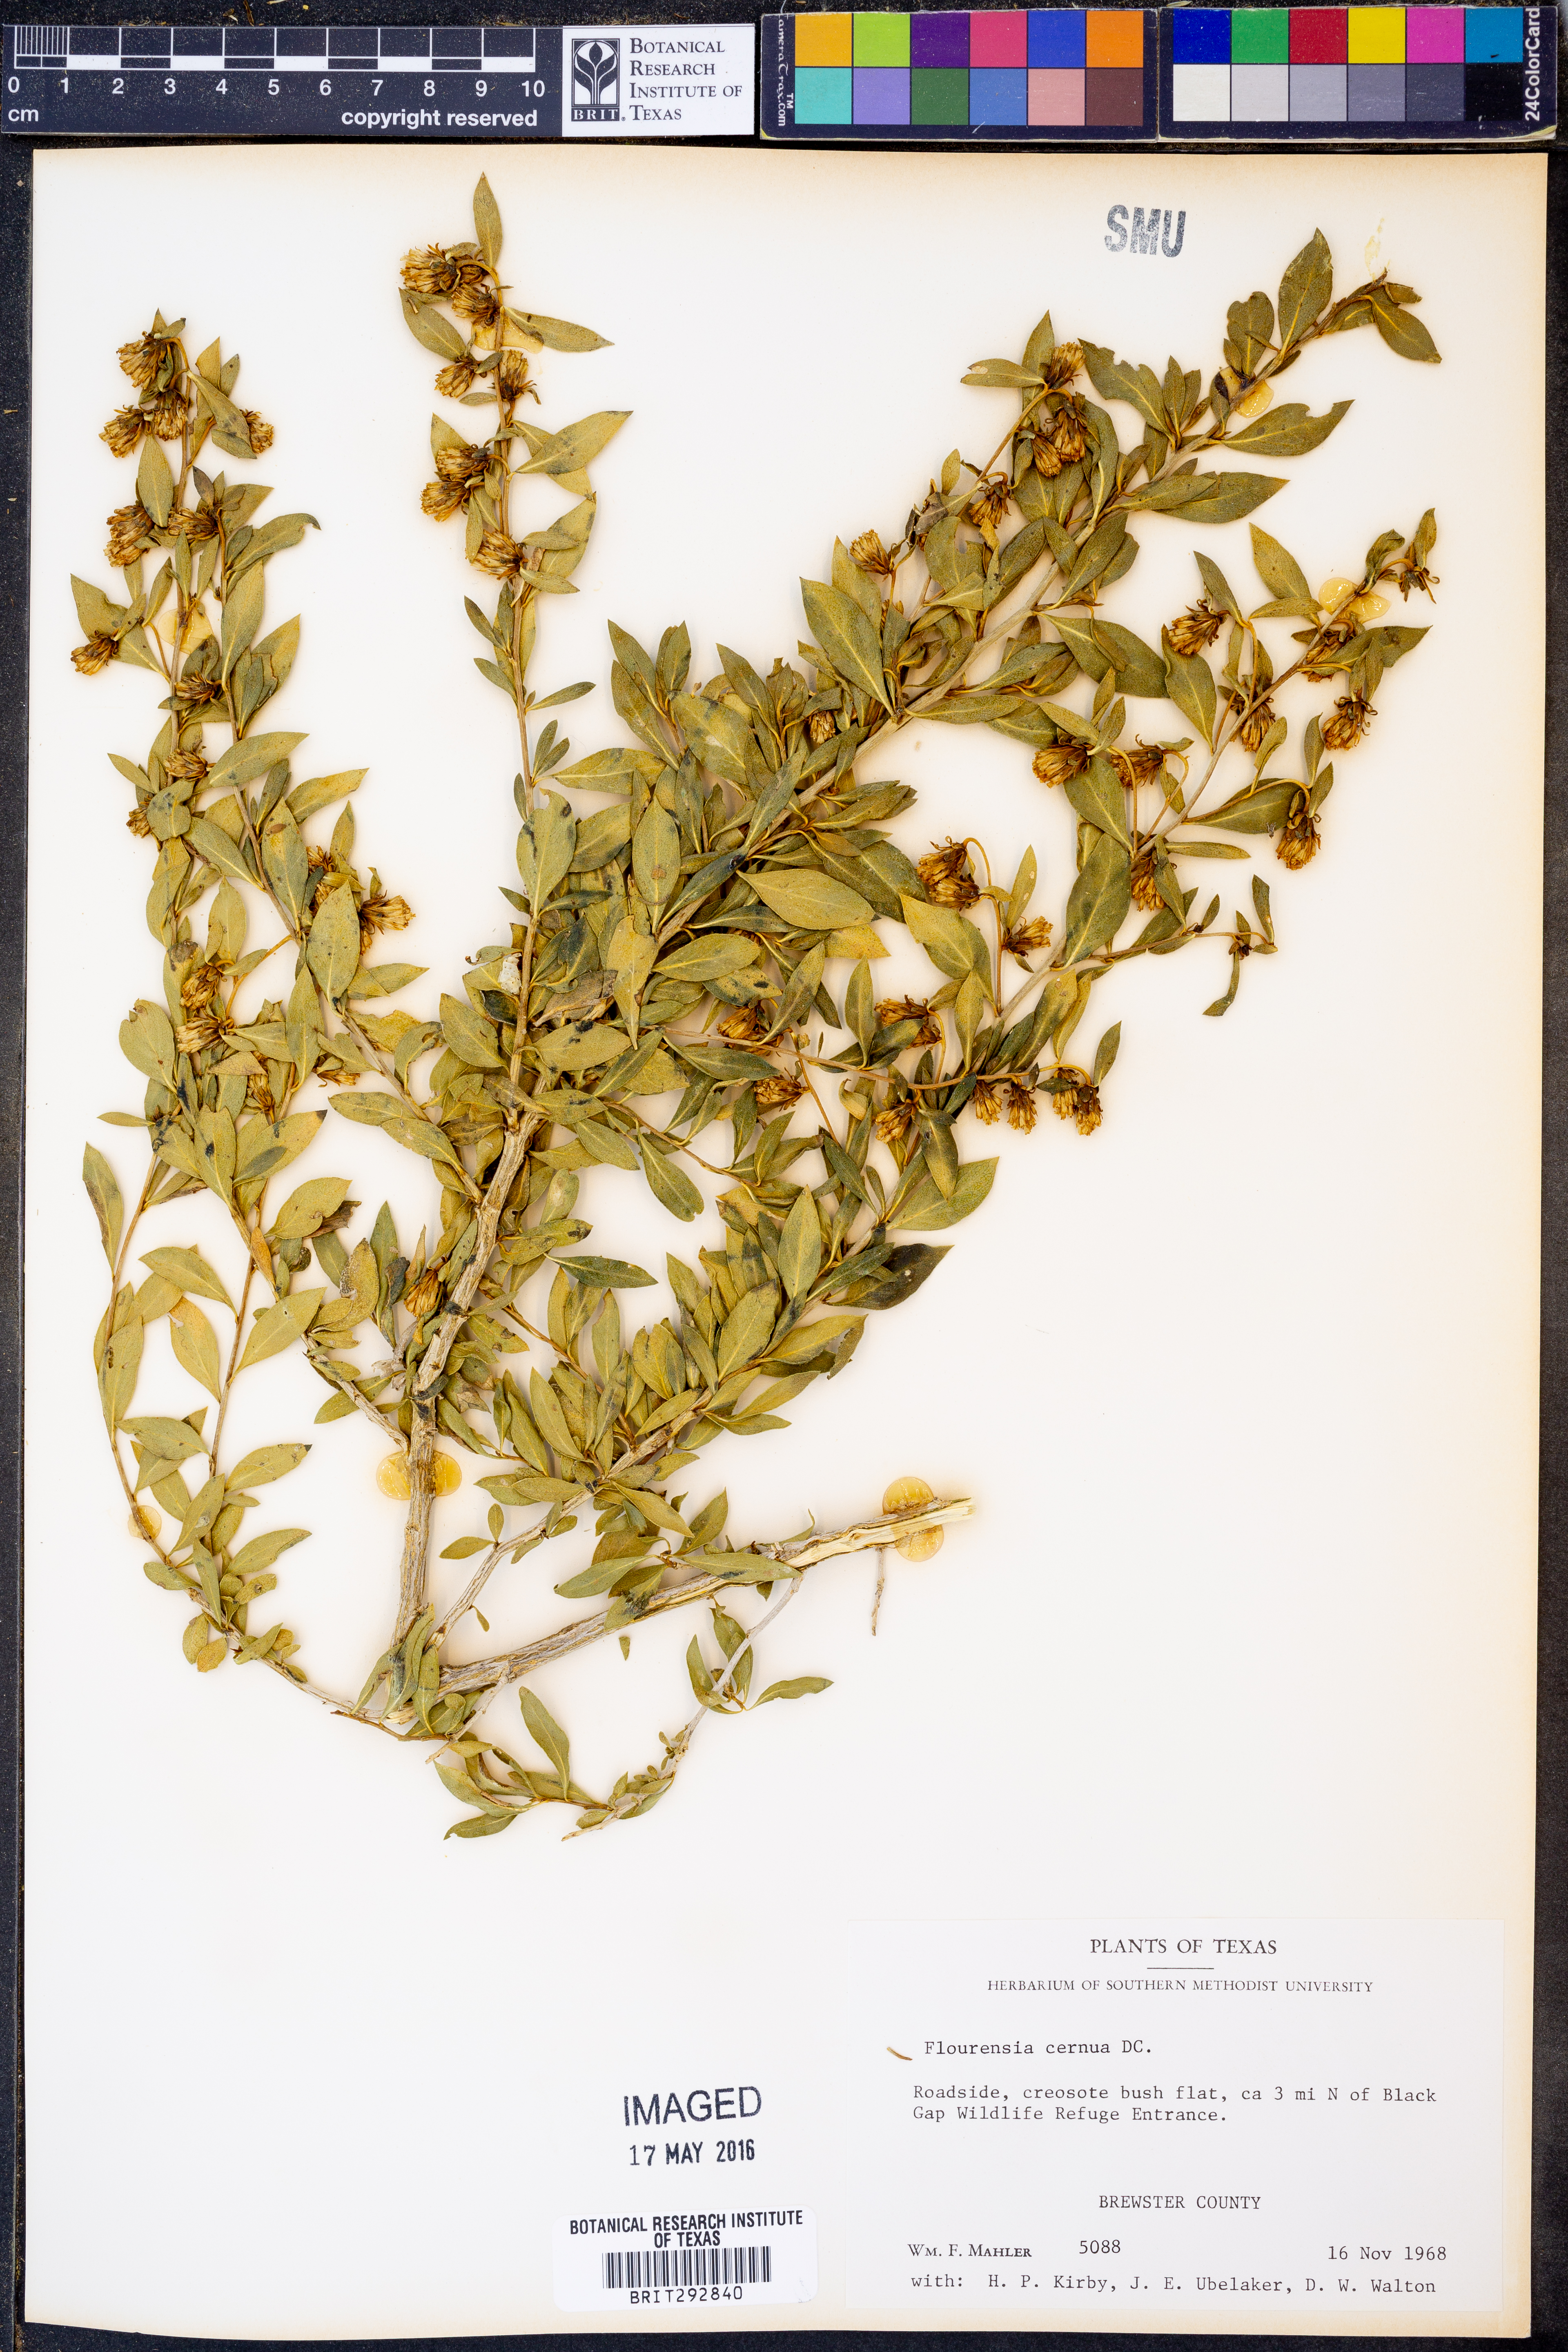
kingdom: Plantae
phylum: Tracheophyta
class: Magnoliopsida
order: Asterales
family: Asteraceae
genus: Flourensia
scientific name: Flourensia cernua
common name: Varnishbush
